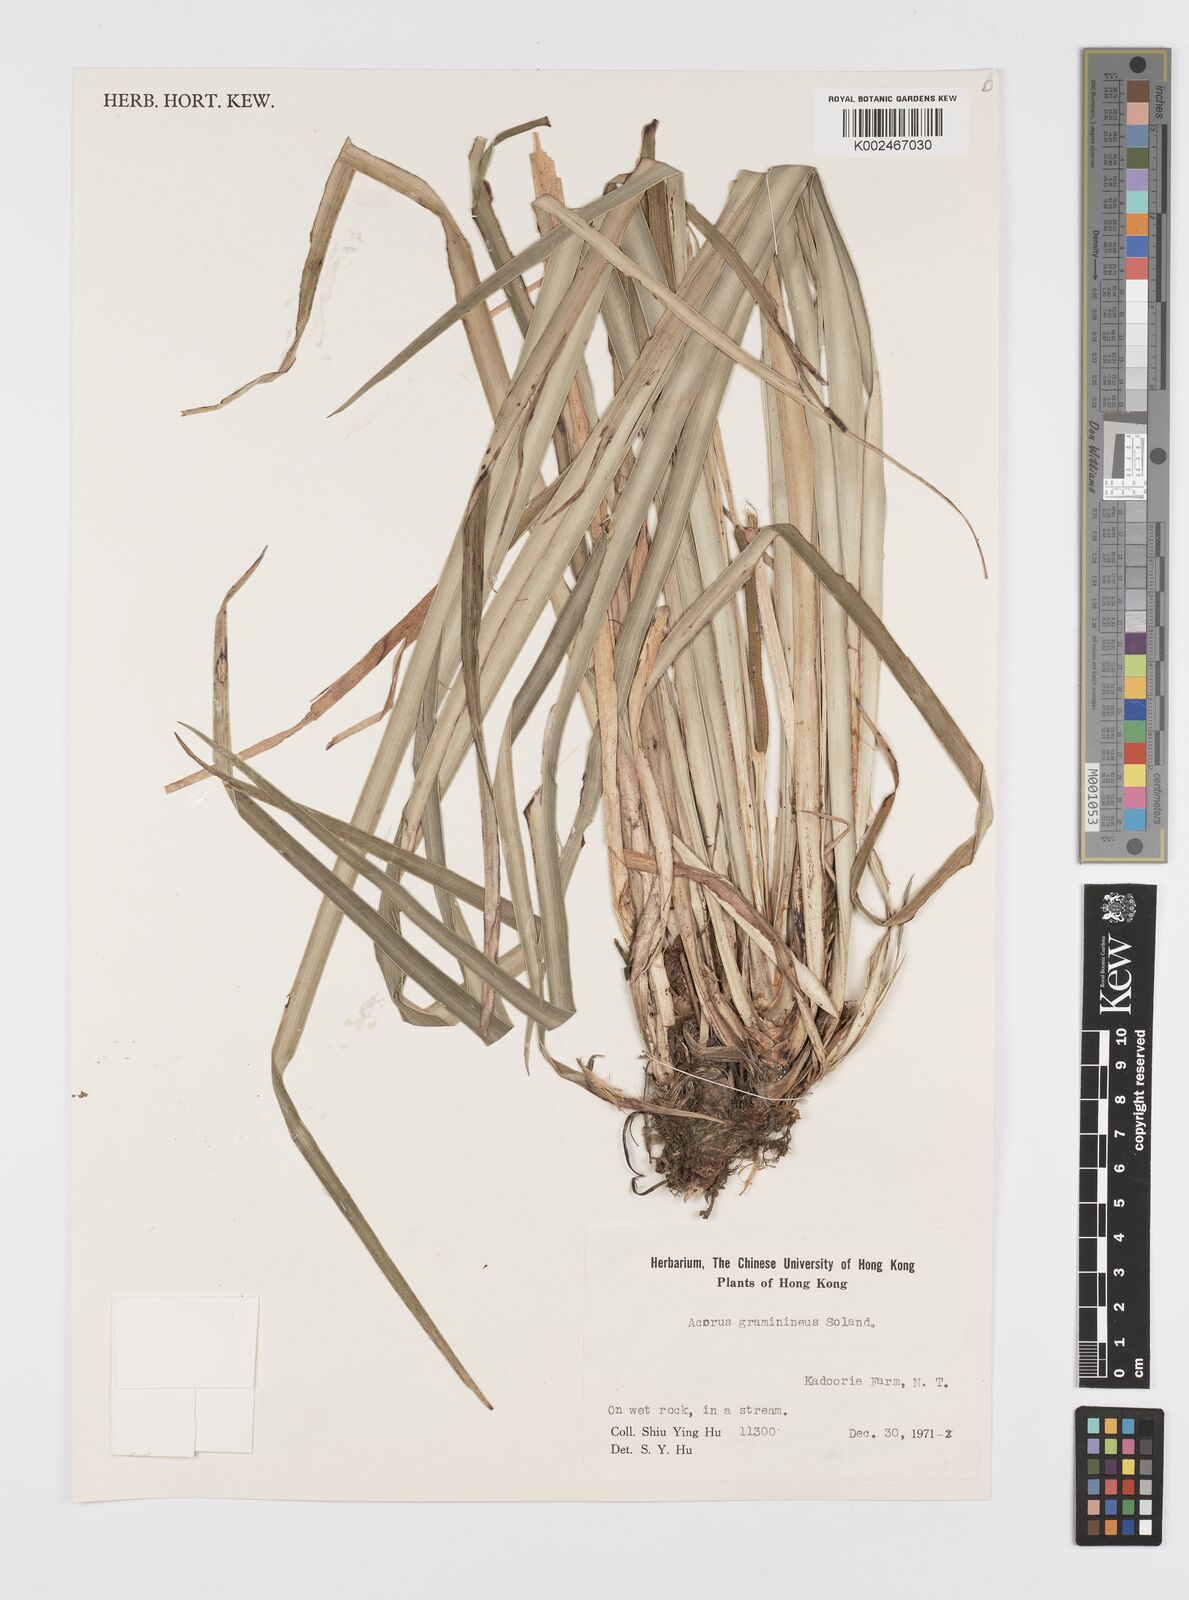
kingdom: Plantae
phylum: Tracheophyta
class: Liliopsida
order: Acorales
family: Acoraceae
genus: Acorus
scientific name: Acorus gramineus
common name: Slender sweet-flag
